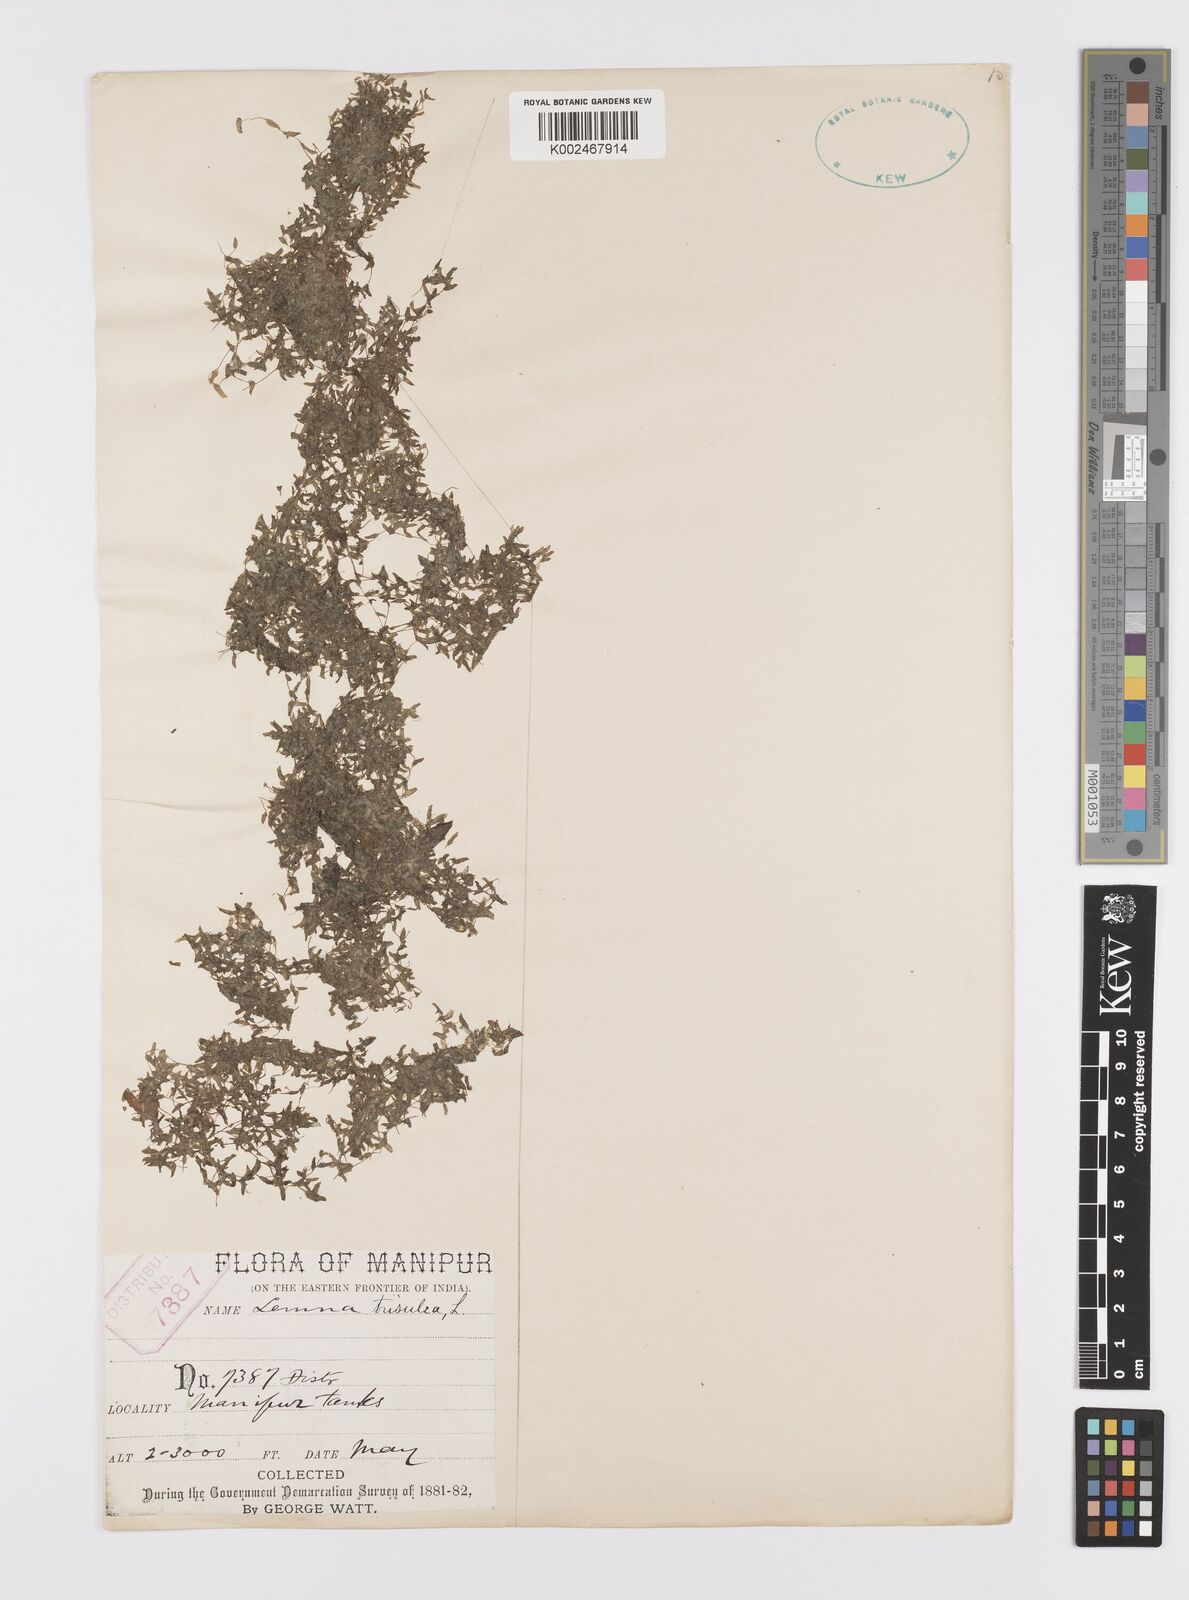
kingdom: Plantae
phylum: Tracheophyta
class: Liliopsida
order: Alismatales
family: Araceae
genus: Lemna
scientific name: Lemna trisulca
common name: Ivy-leaved duckweed
